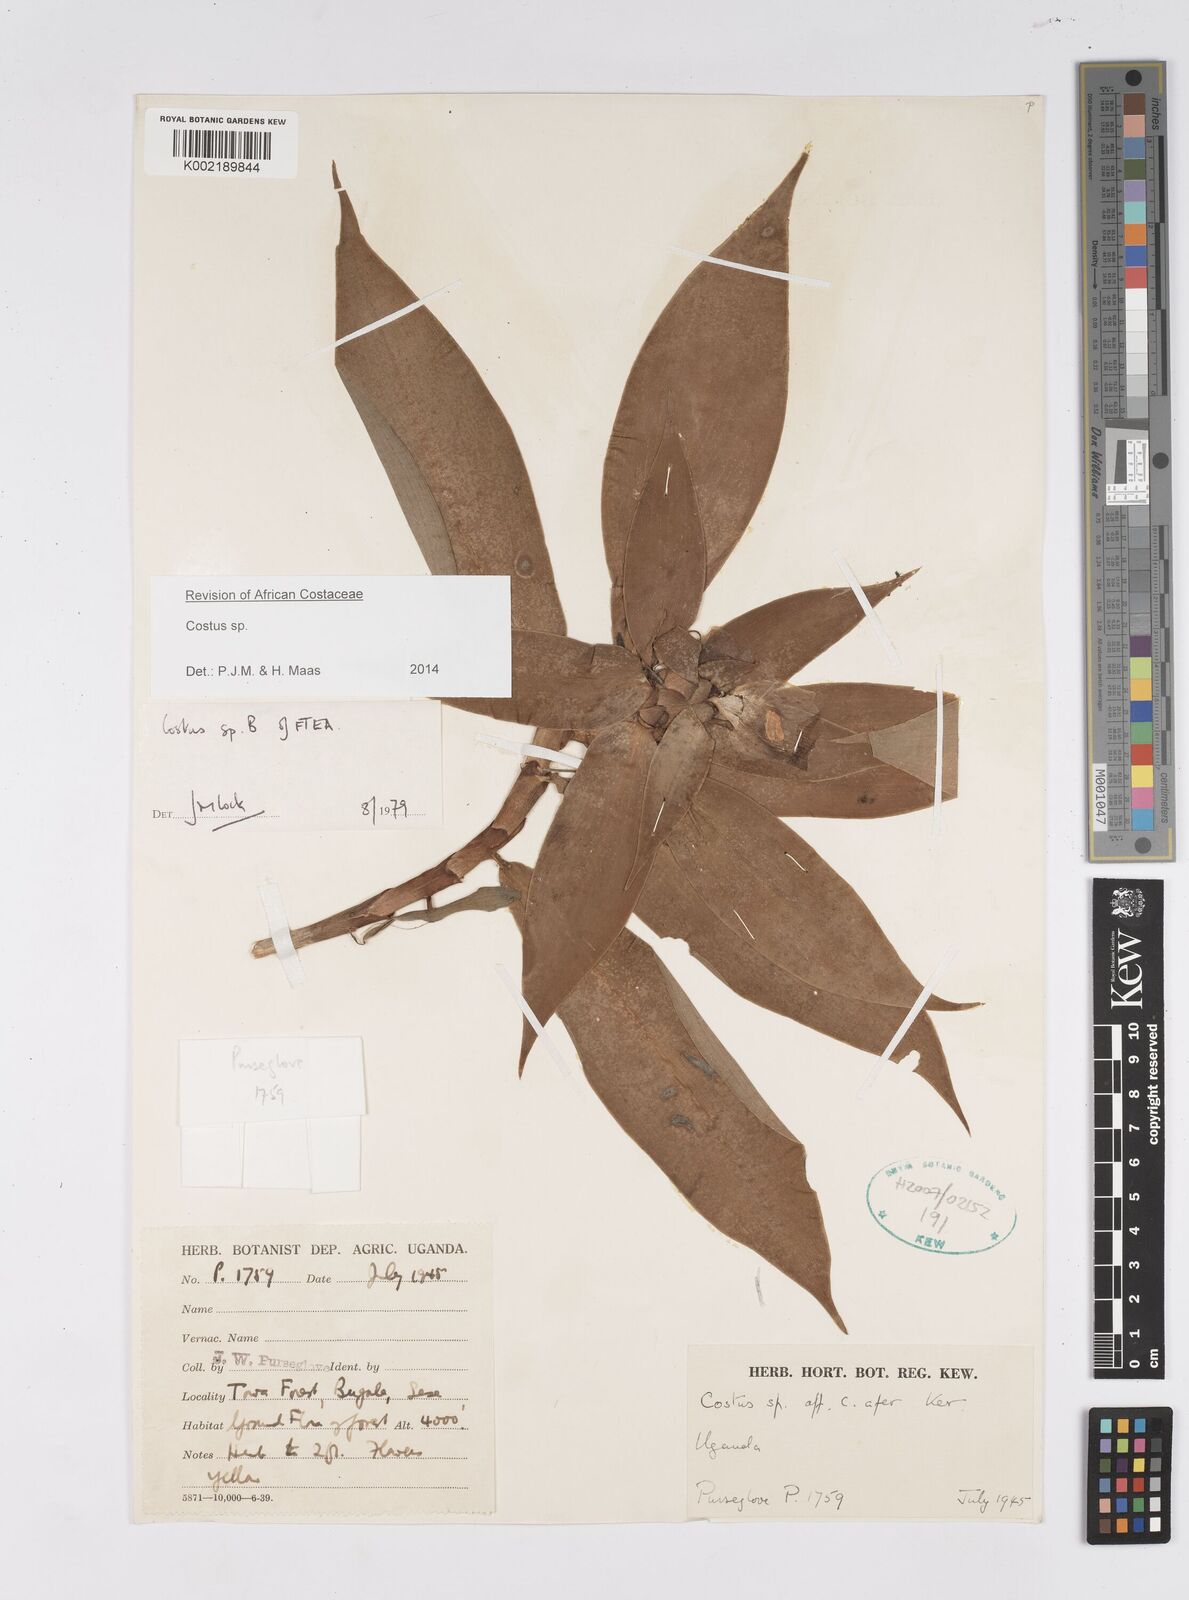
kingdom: Plantae
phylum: Tracheophyta
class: Liliopsida
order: Zingiberales
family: Costaceae
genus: Costus
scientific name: Costus
